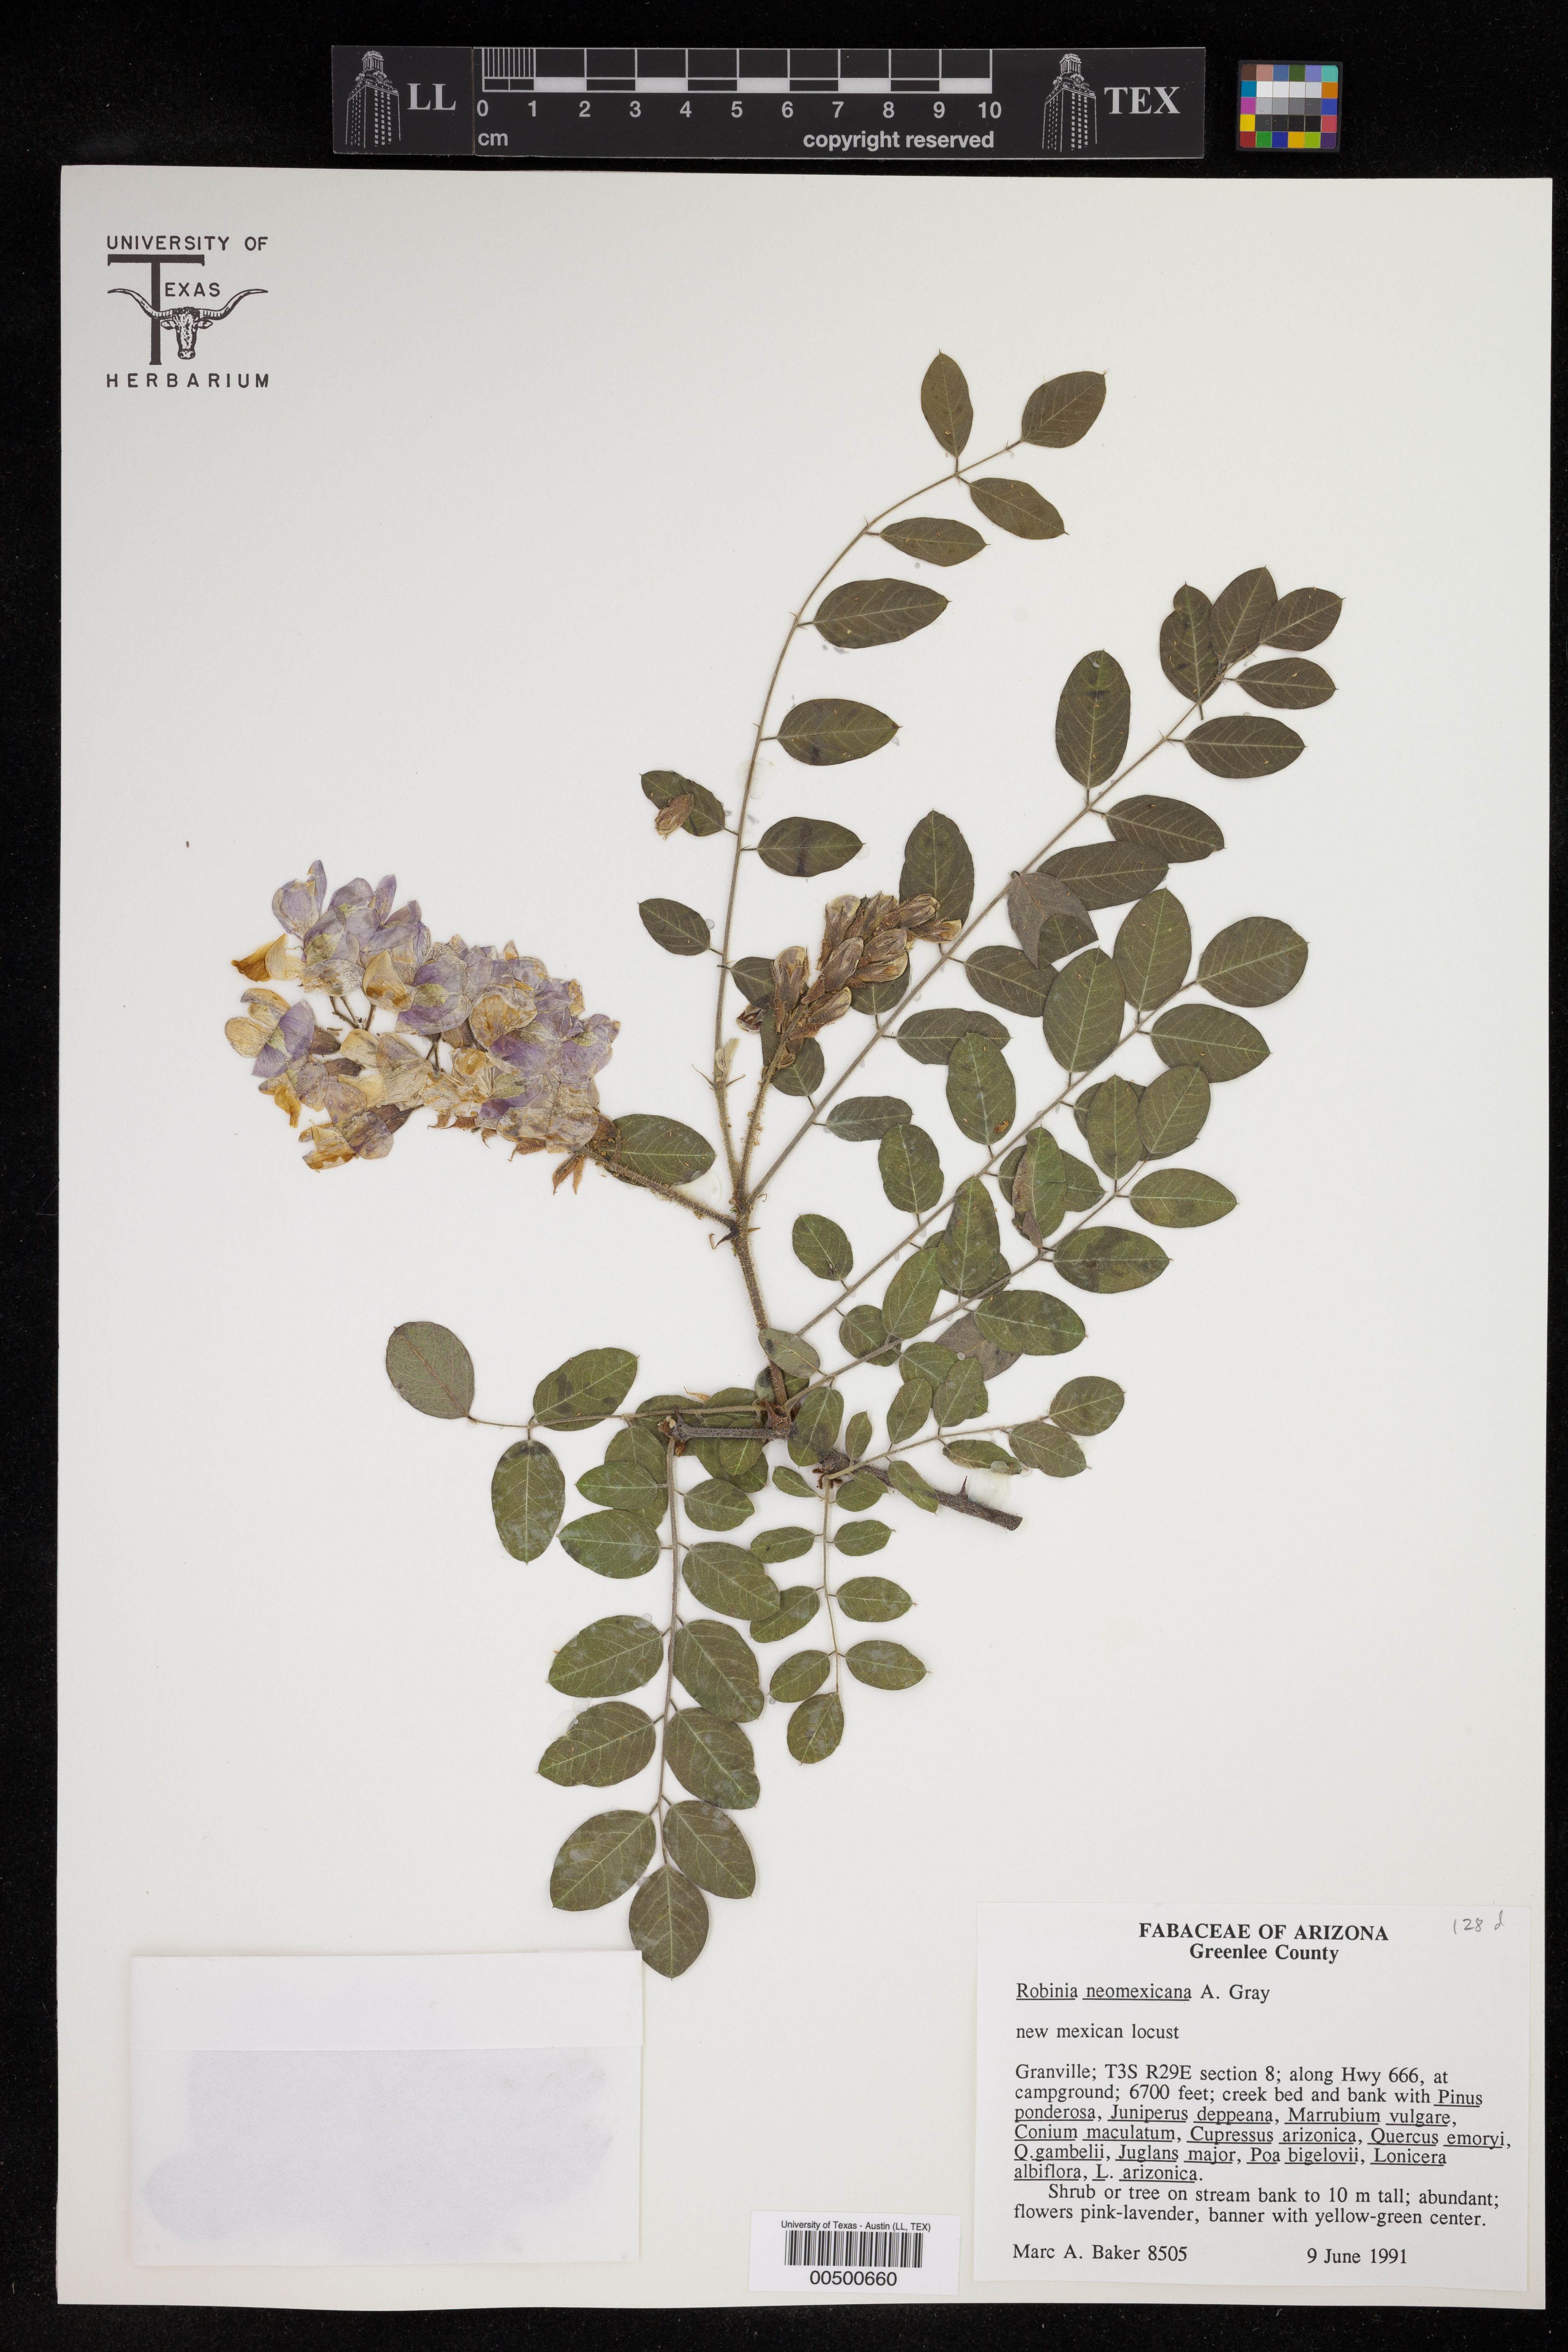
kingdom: Plantae
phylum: Tracheophyta
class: Magnoliopsida
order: Fabales
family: Fabaceae
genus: Robinia
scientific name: Robinia neomexicana
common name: New mexico locust
